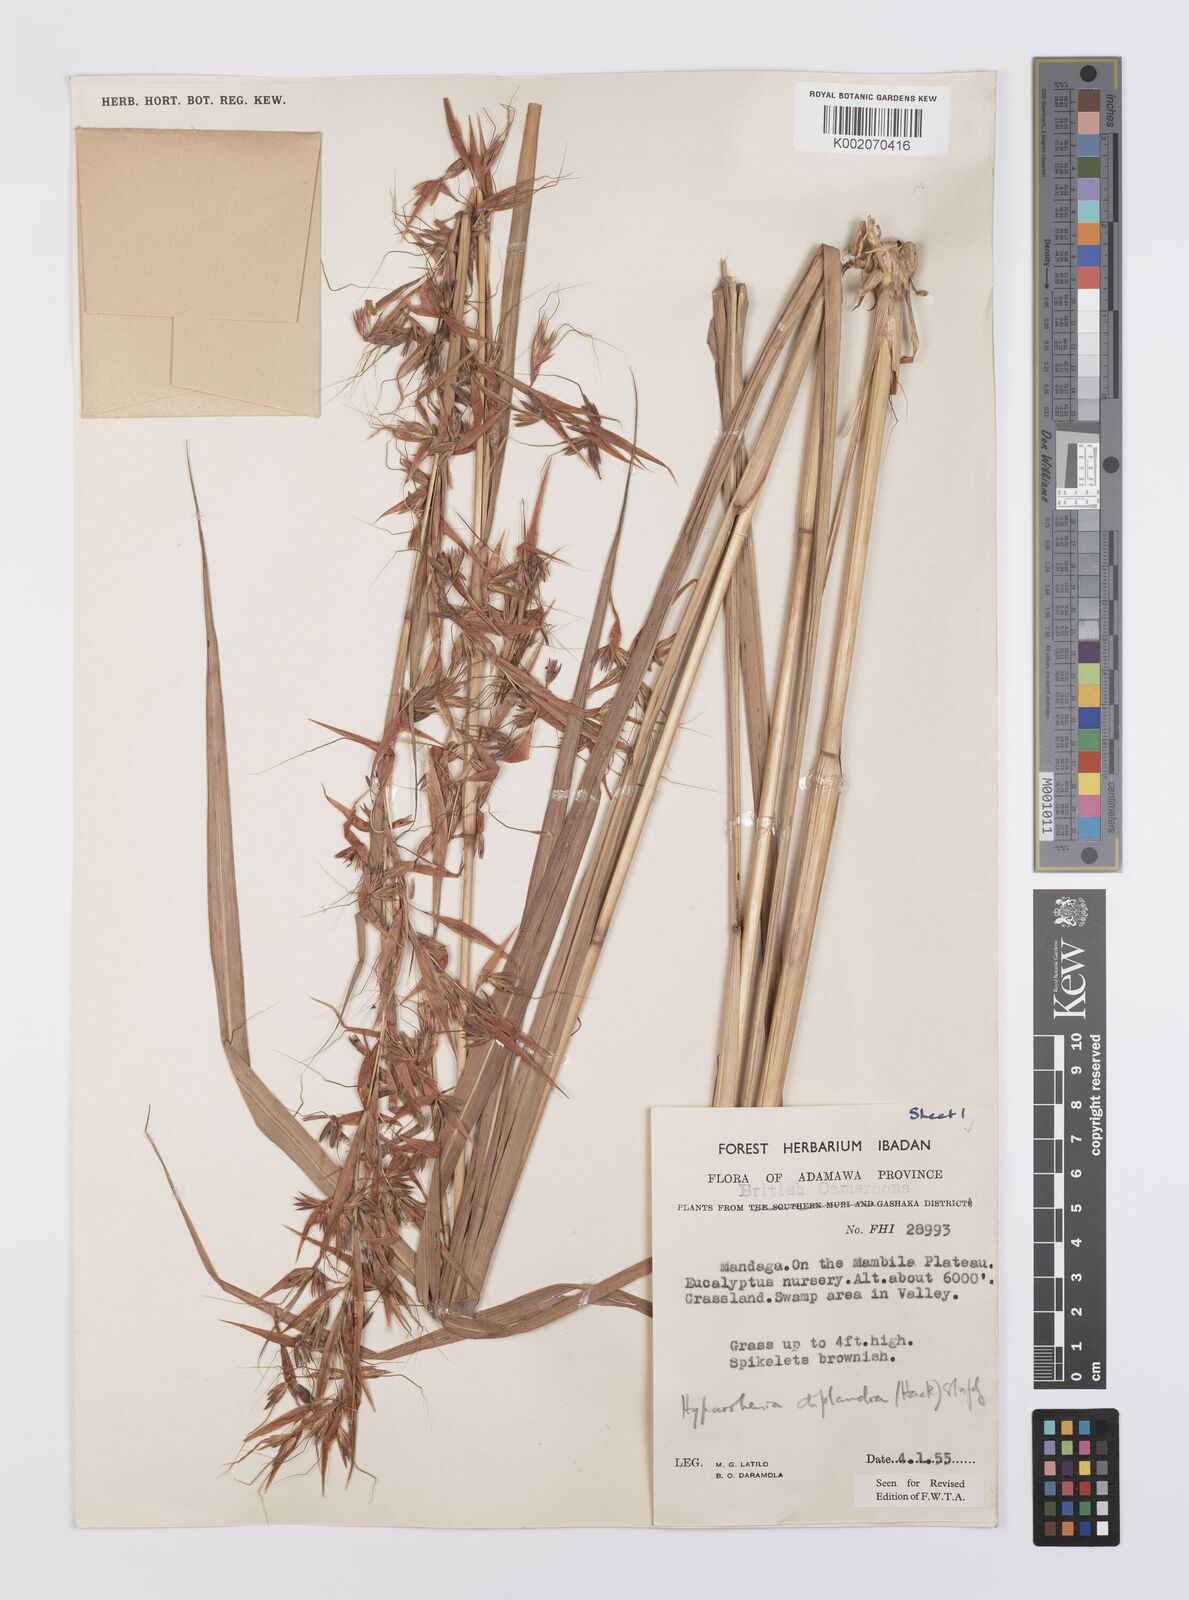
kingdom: Plantae
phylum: Tracheophyta
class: Liliopsida
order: Poales
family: Poaceae
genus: Hyparrhenia
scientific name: Hyparrhenia diplandra
